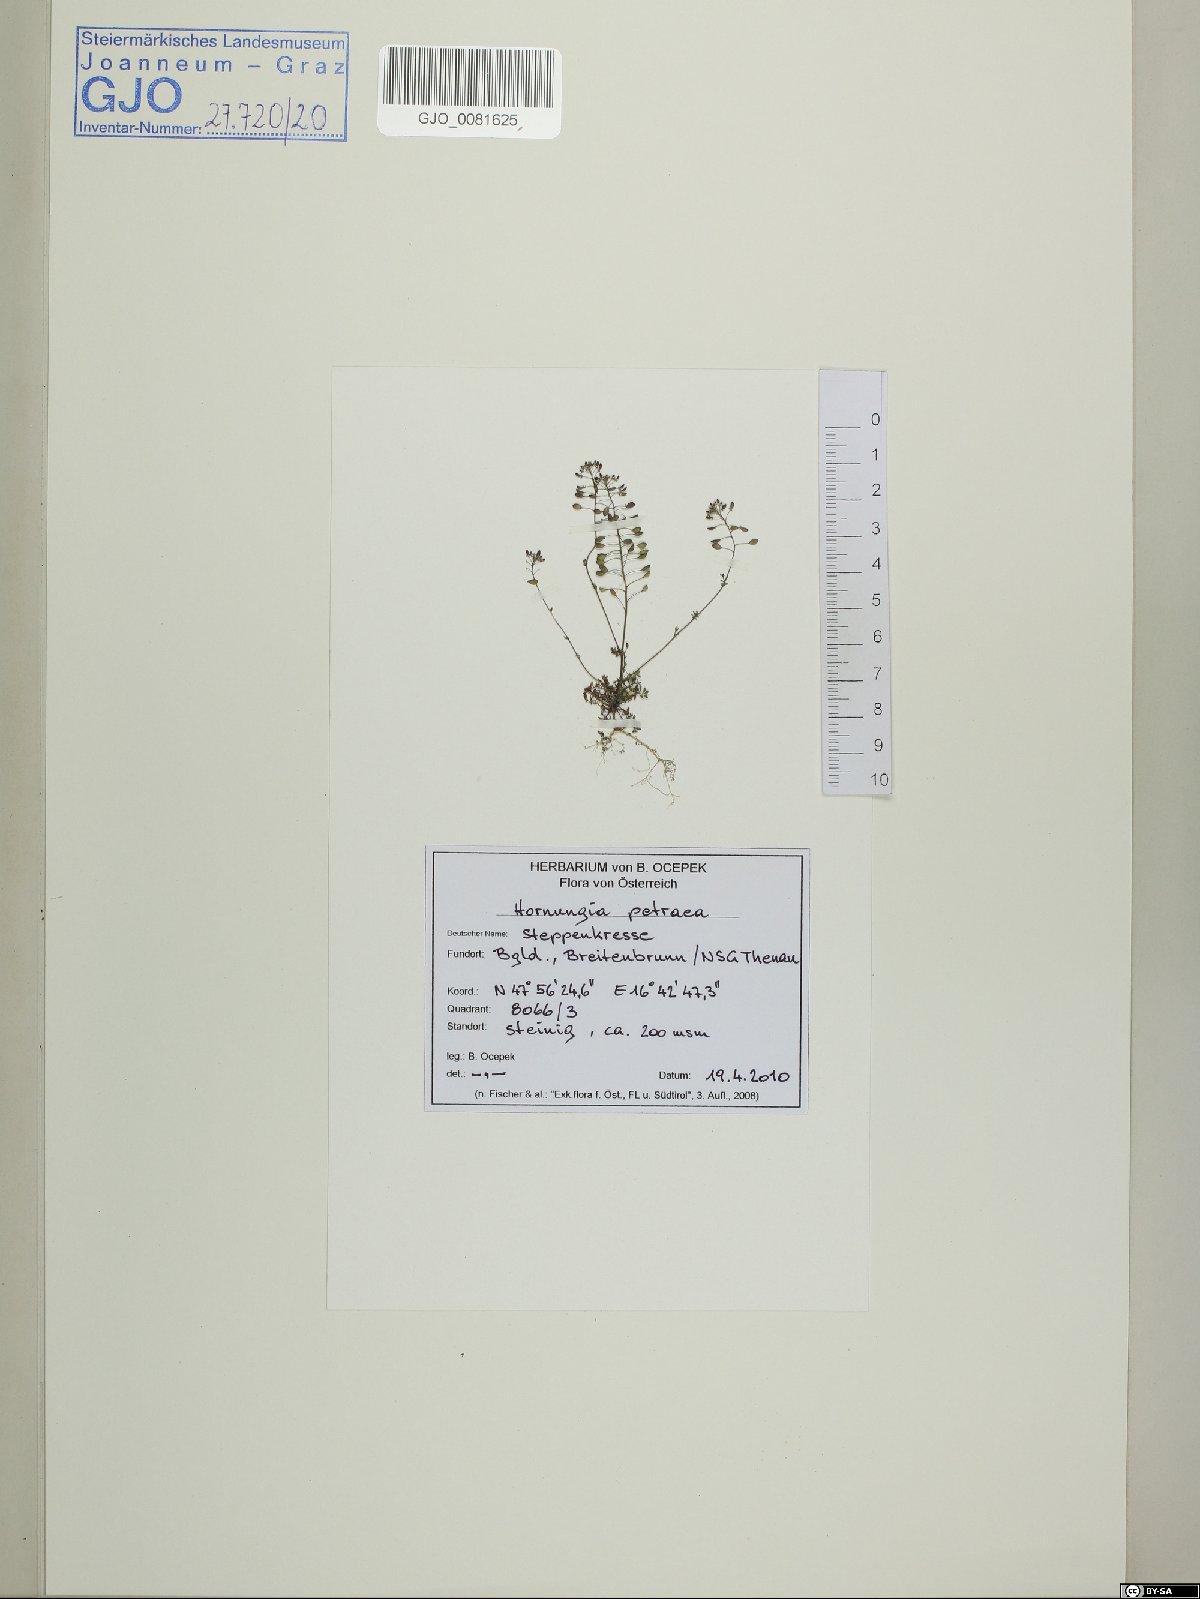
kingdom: Plantae
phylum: Tracheophyta
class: Magnoliopsida
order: Brassicales
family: Brassicaceae
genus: Hornungia
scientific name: Hornungia petraea
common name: Hutchinsia
